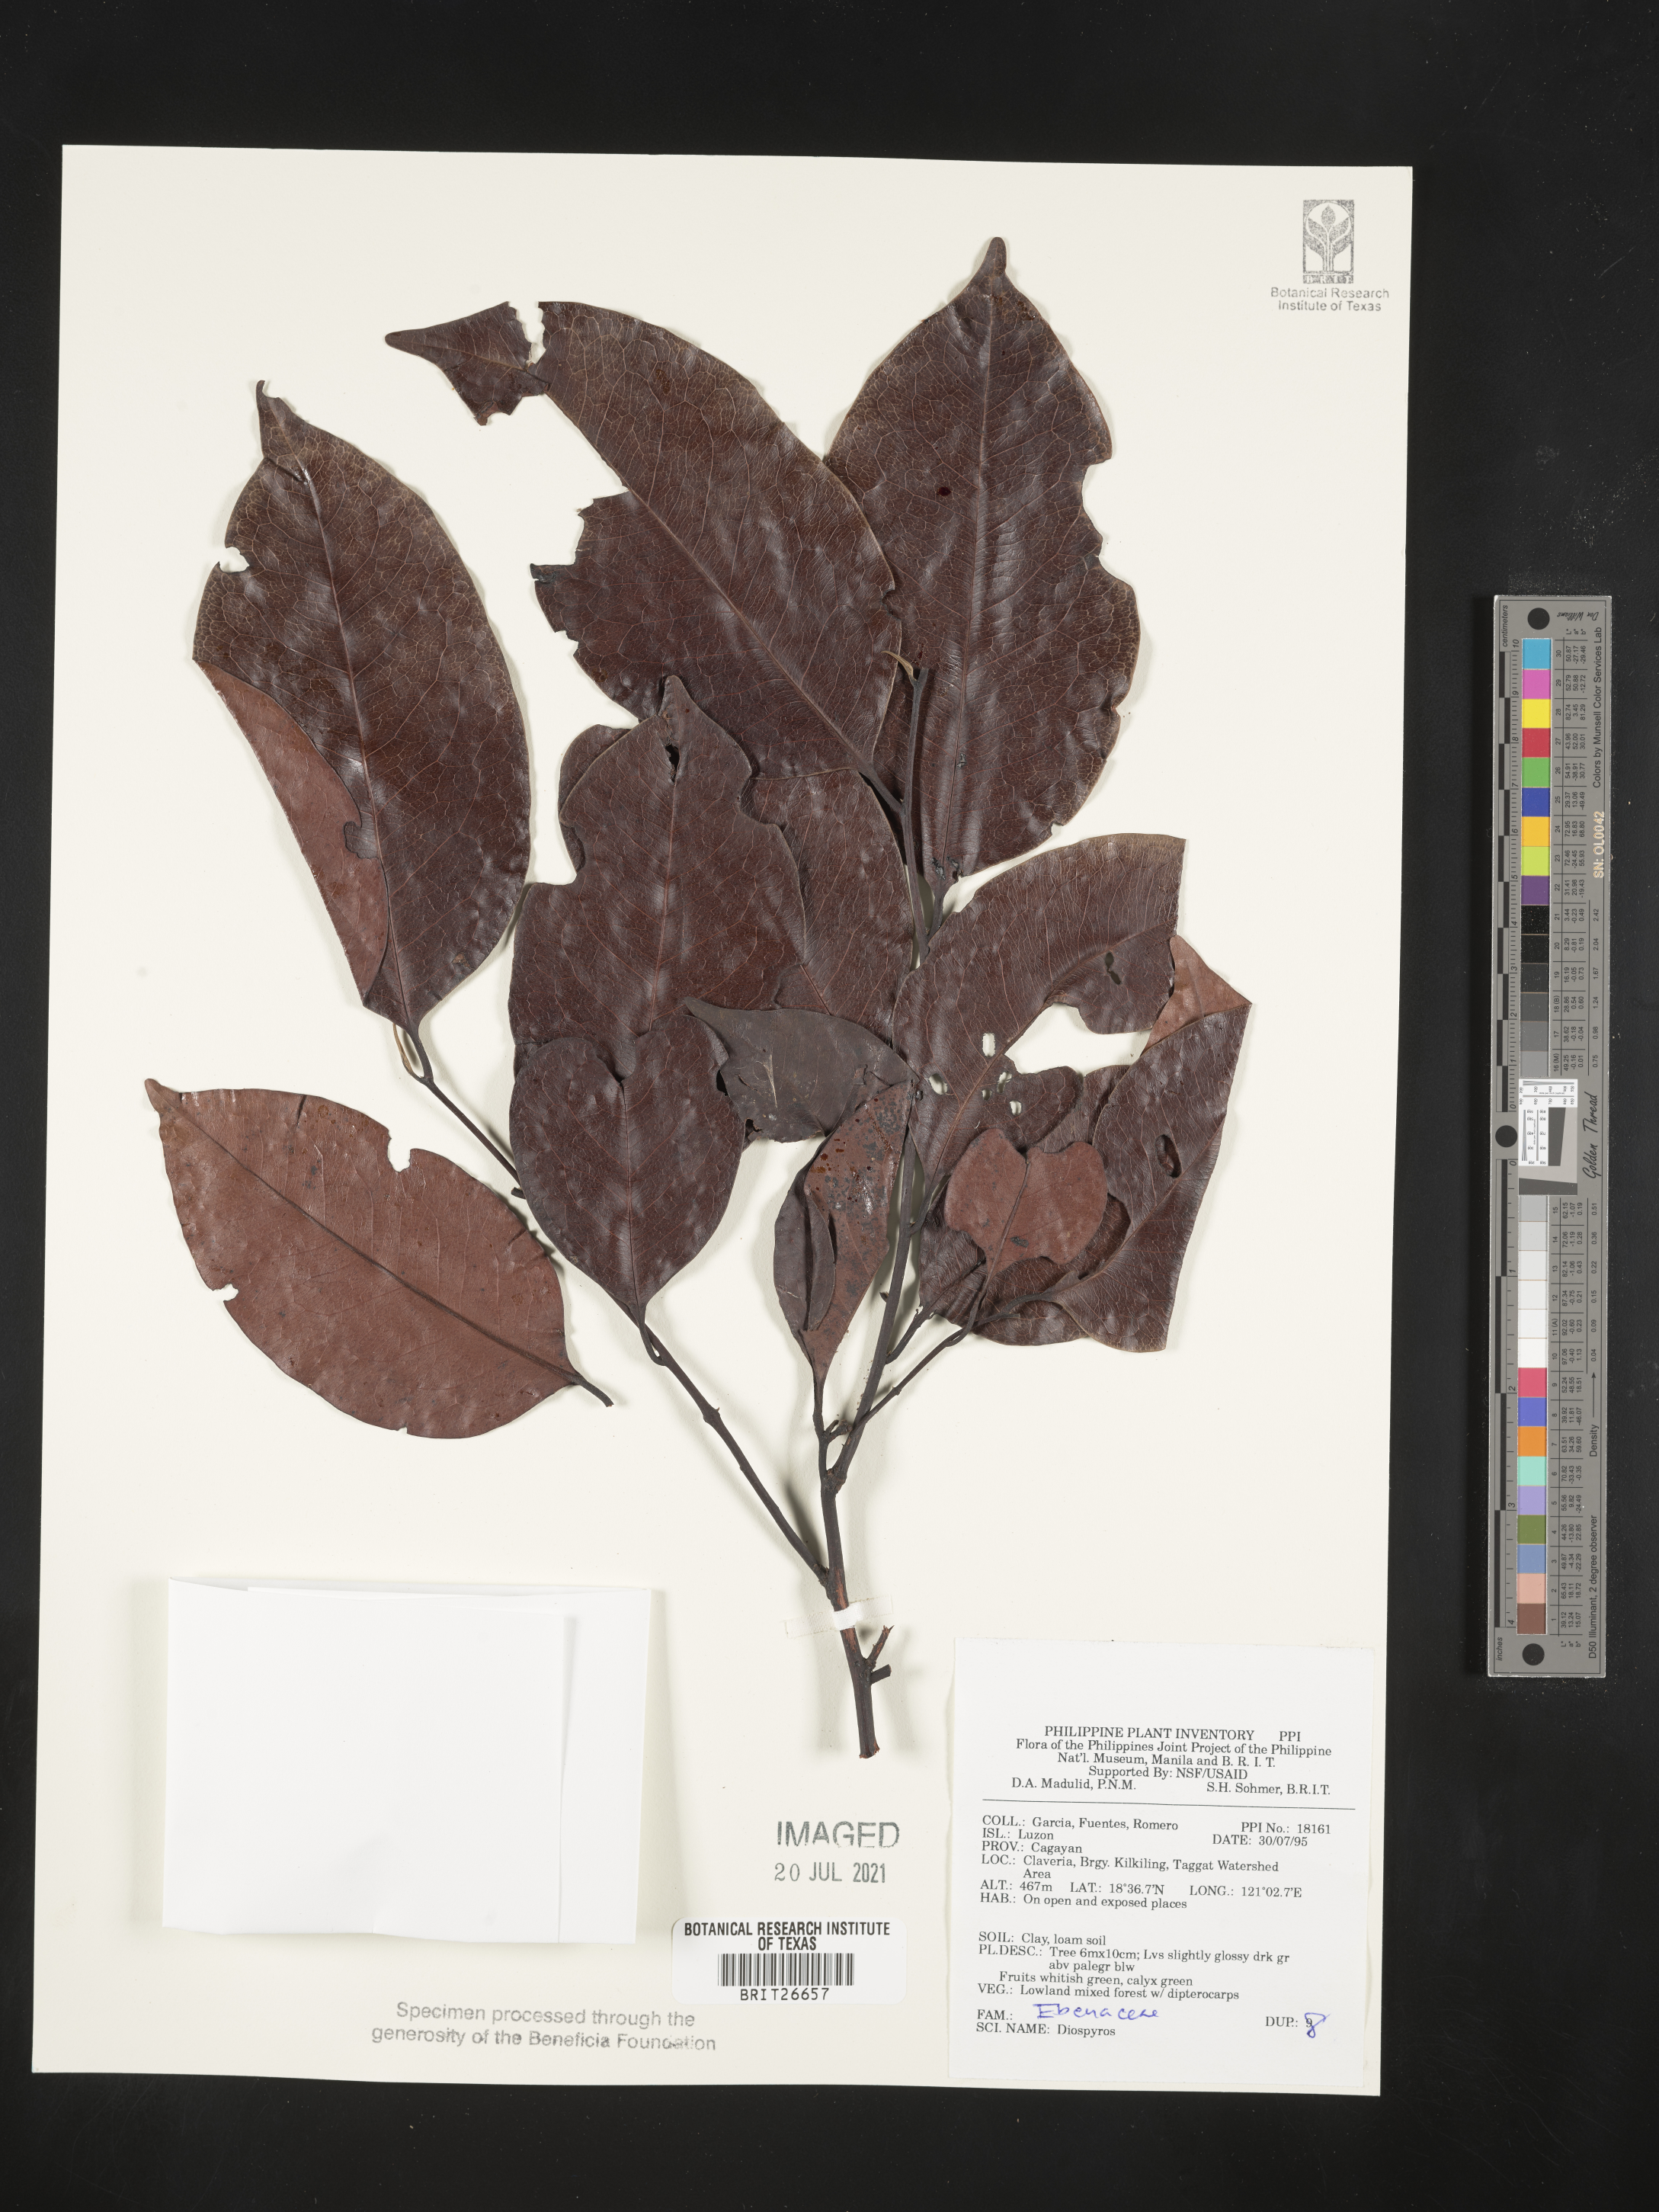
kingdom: Plantae
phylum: Tracheophyta
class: Magnoliopsida
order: Ericales
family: Ebenaceae
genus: Diospyros
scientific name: Diospyros
